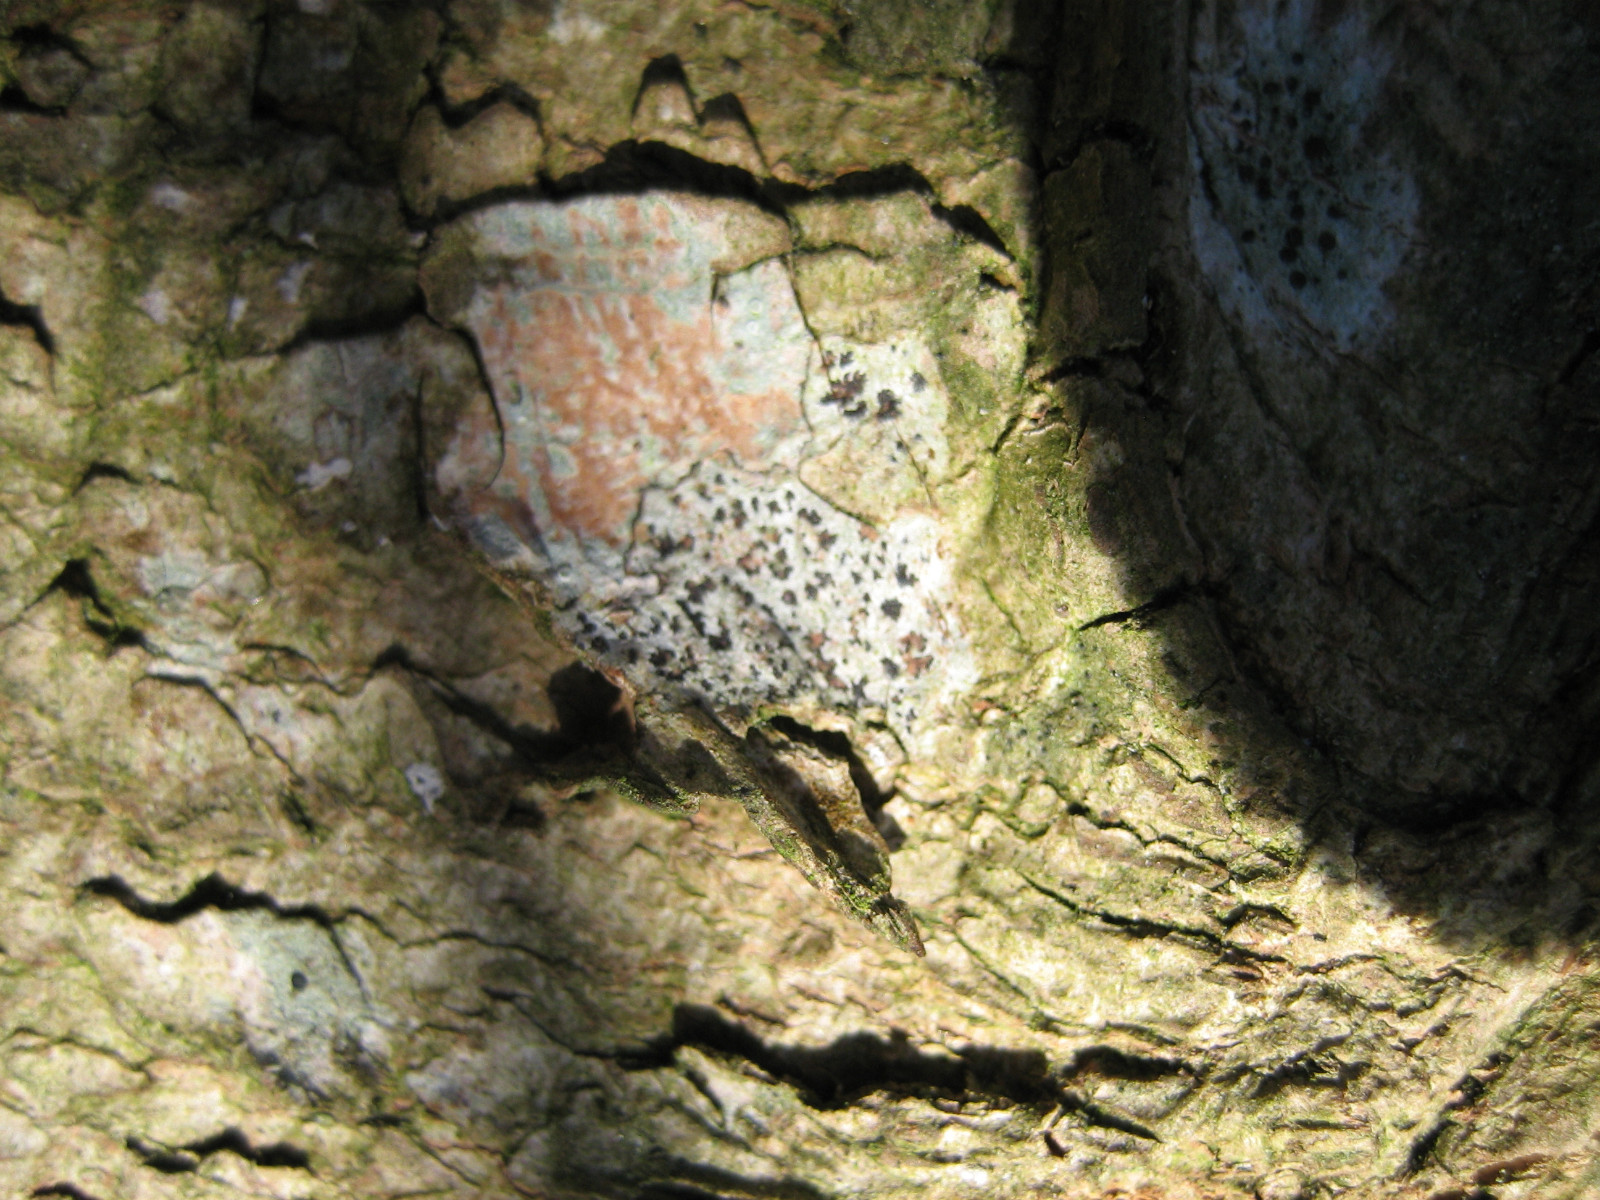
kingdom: Fungi
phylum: Ascomycota
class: Arthoniomycetes
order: Arthoniales
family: Arthoniaceae
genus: Arthonia
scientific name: Arthonia radiata
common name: stjerne-pletlav
